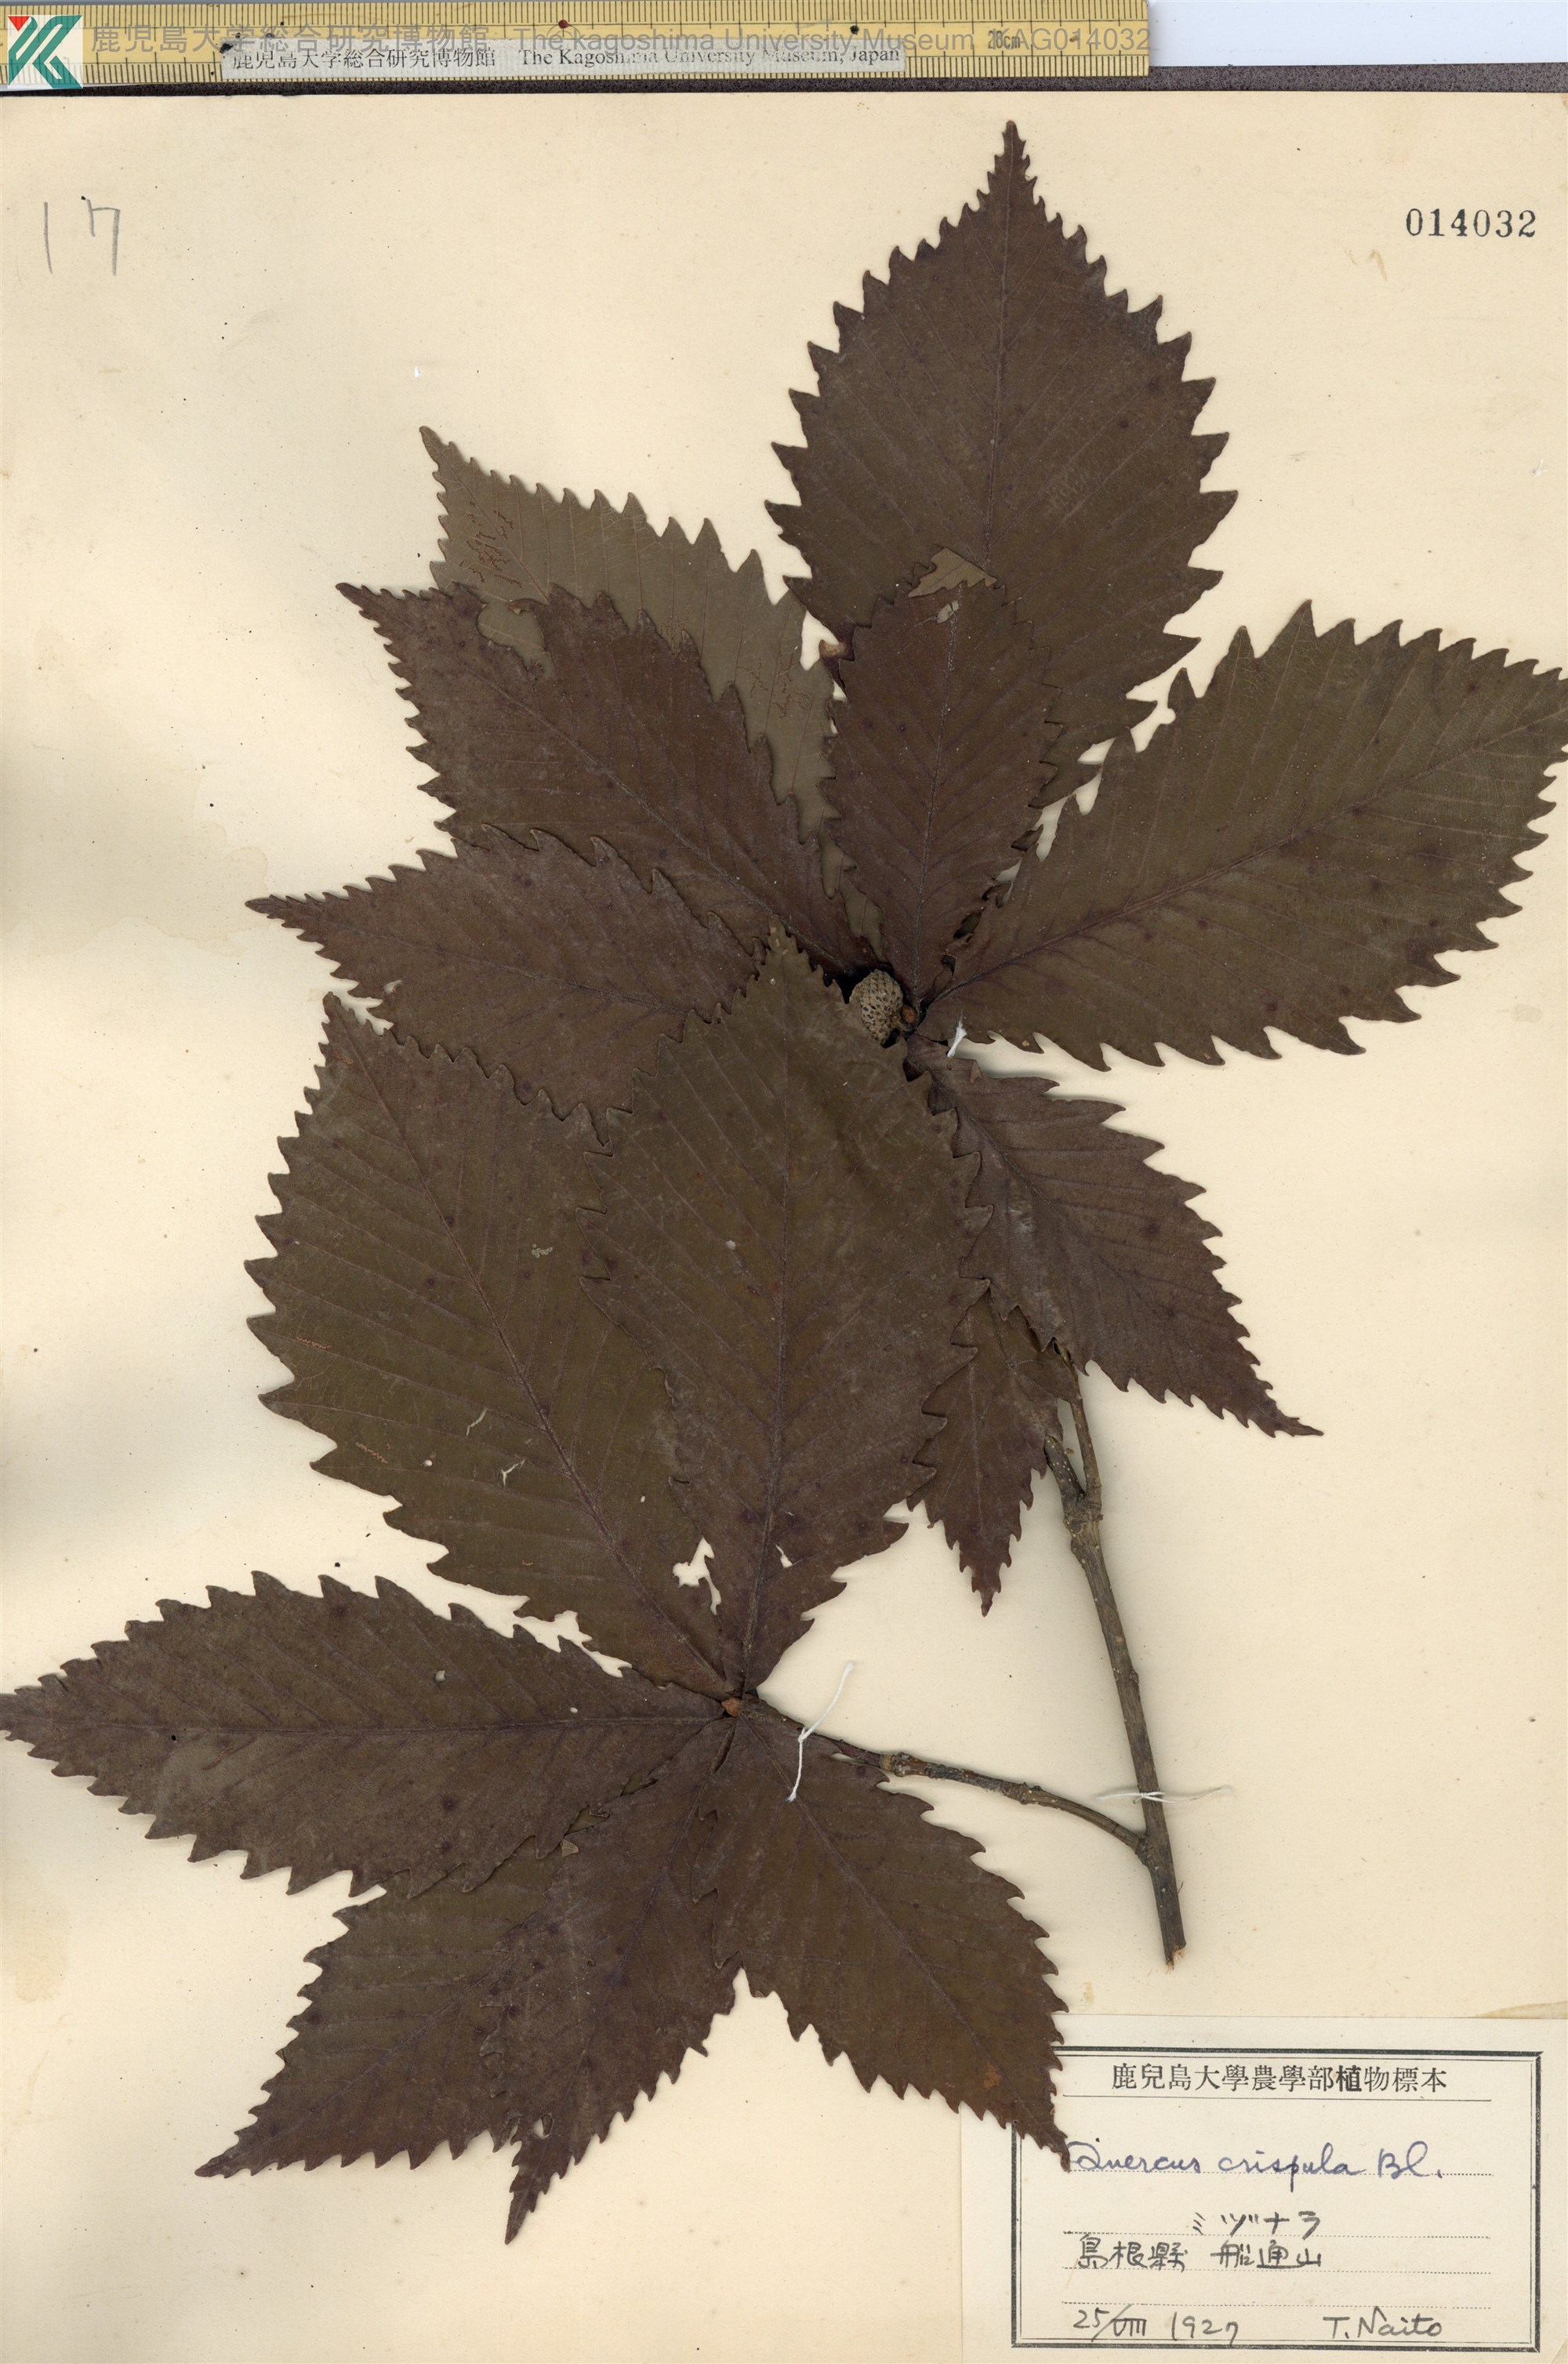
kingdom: Plantae
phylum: Tracheophyta
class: Magnoliopsida
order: Fagales
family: Fagaceae
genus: Quercus
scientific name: Quercus crispula
